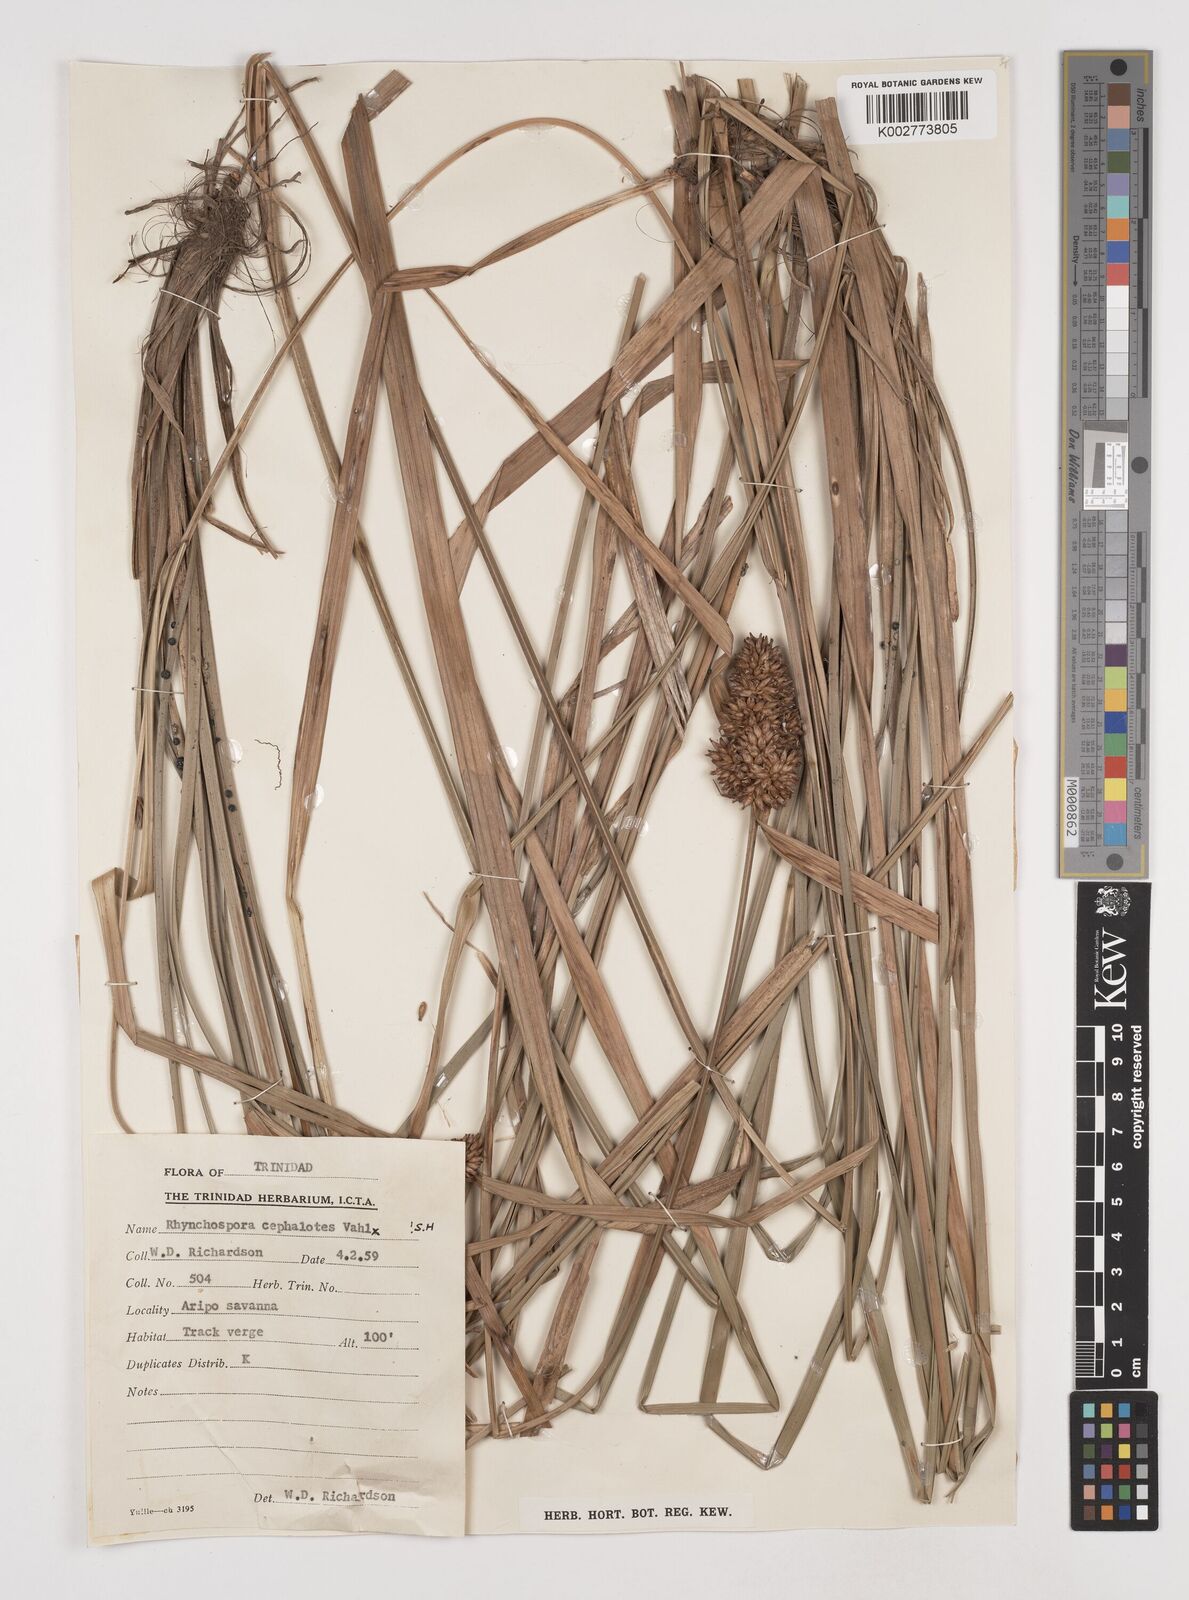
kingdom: Plantae
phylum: Tracheophyta
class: Liliopsida
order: Poales
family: Cyperaceae
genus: Rhynchospora
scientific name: Rhynchospora cephalotes
